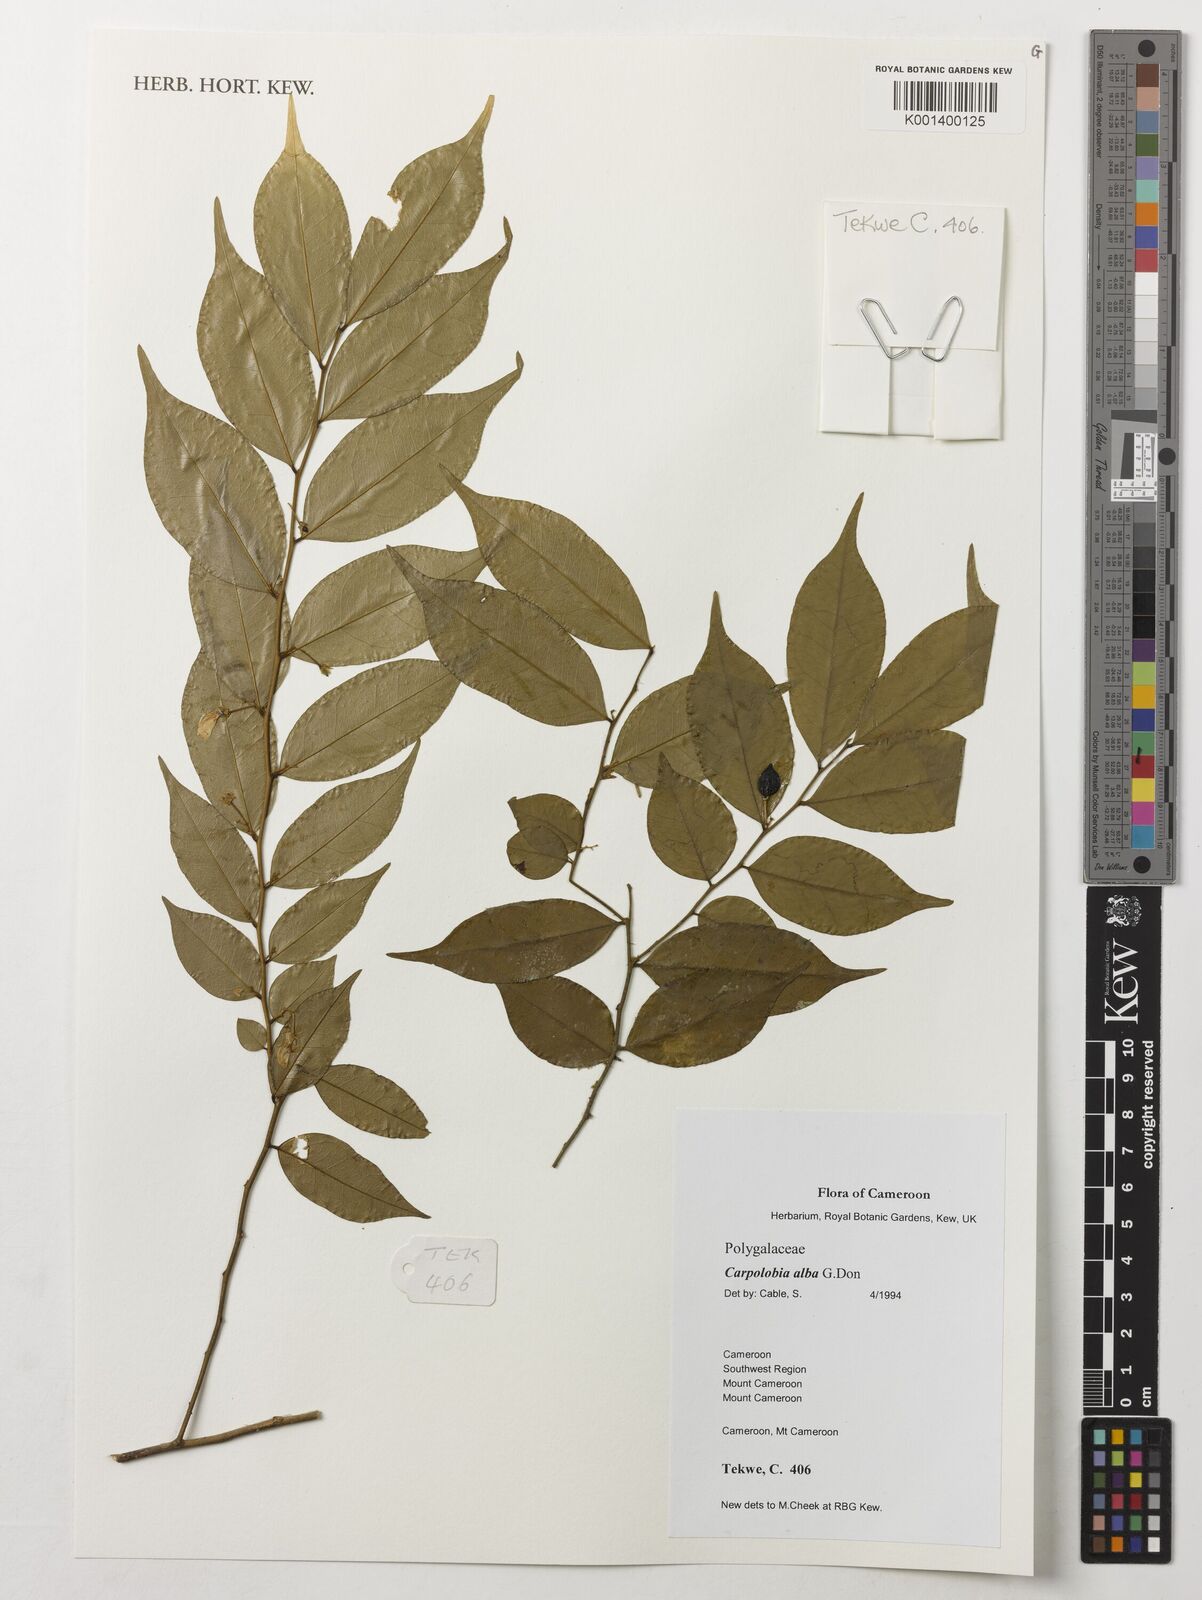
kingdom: Plantae
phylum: Tracheophyta
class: Magnoliopsida
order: Fabales
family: Polygalaceae
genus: Carpolobia
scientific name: Carpolobia alba
